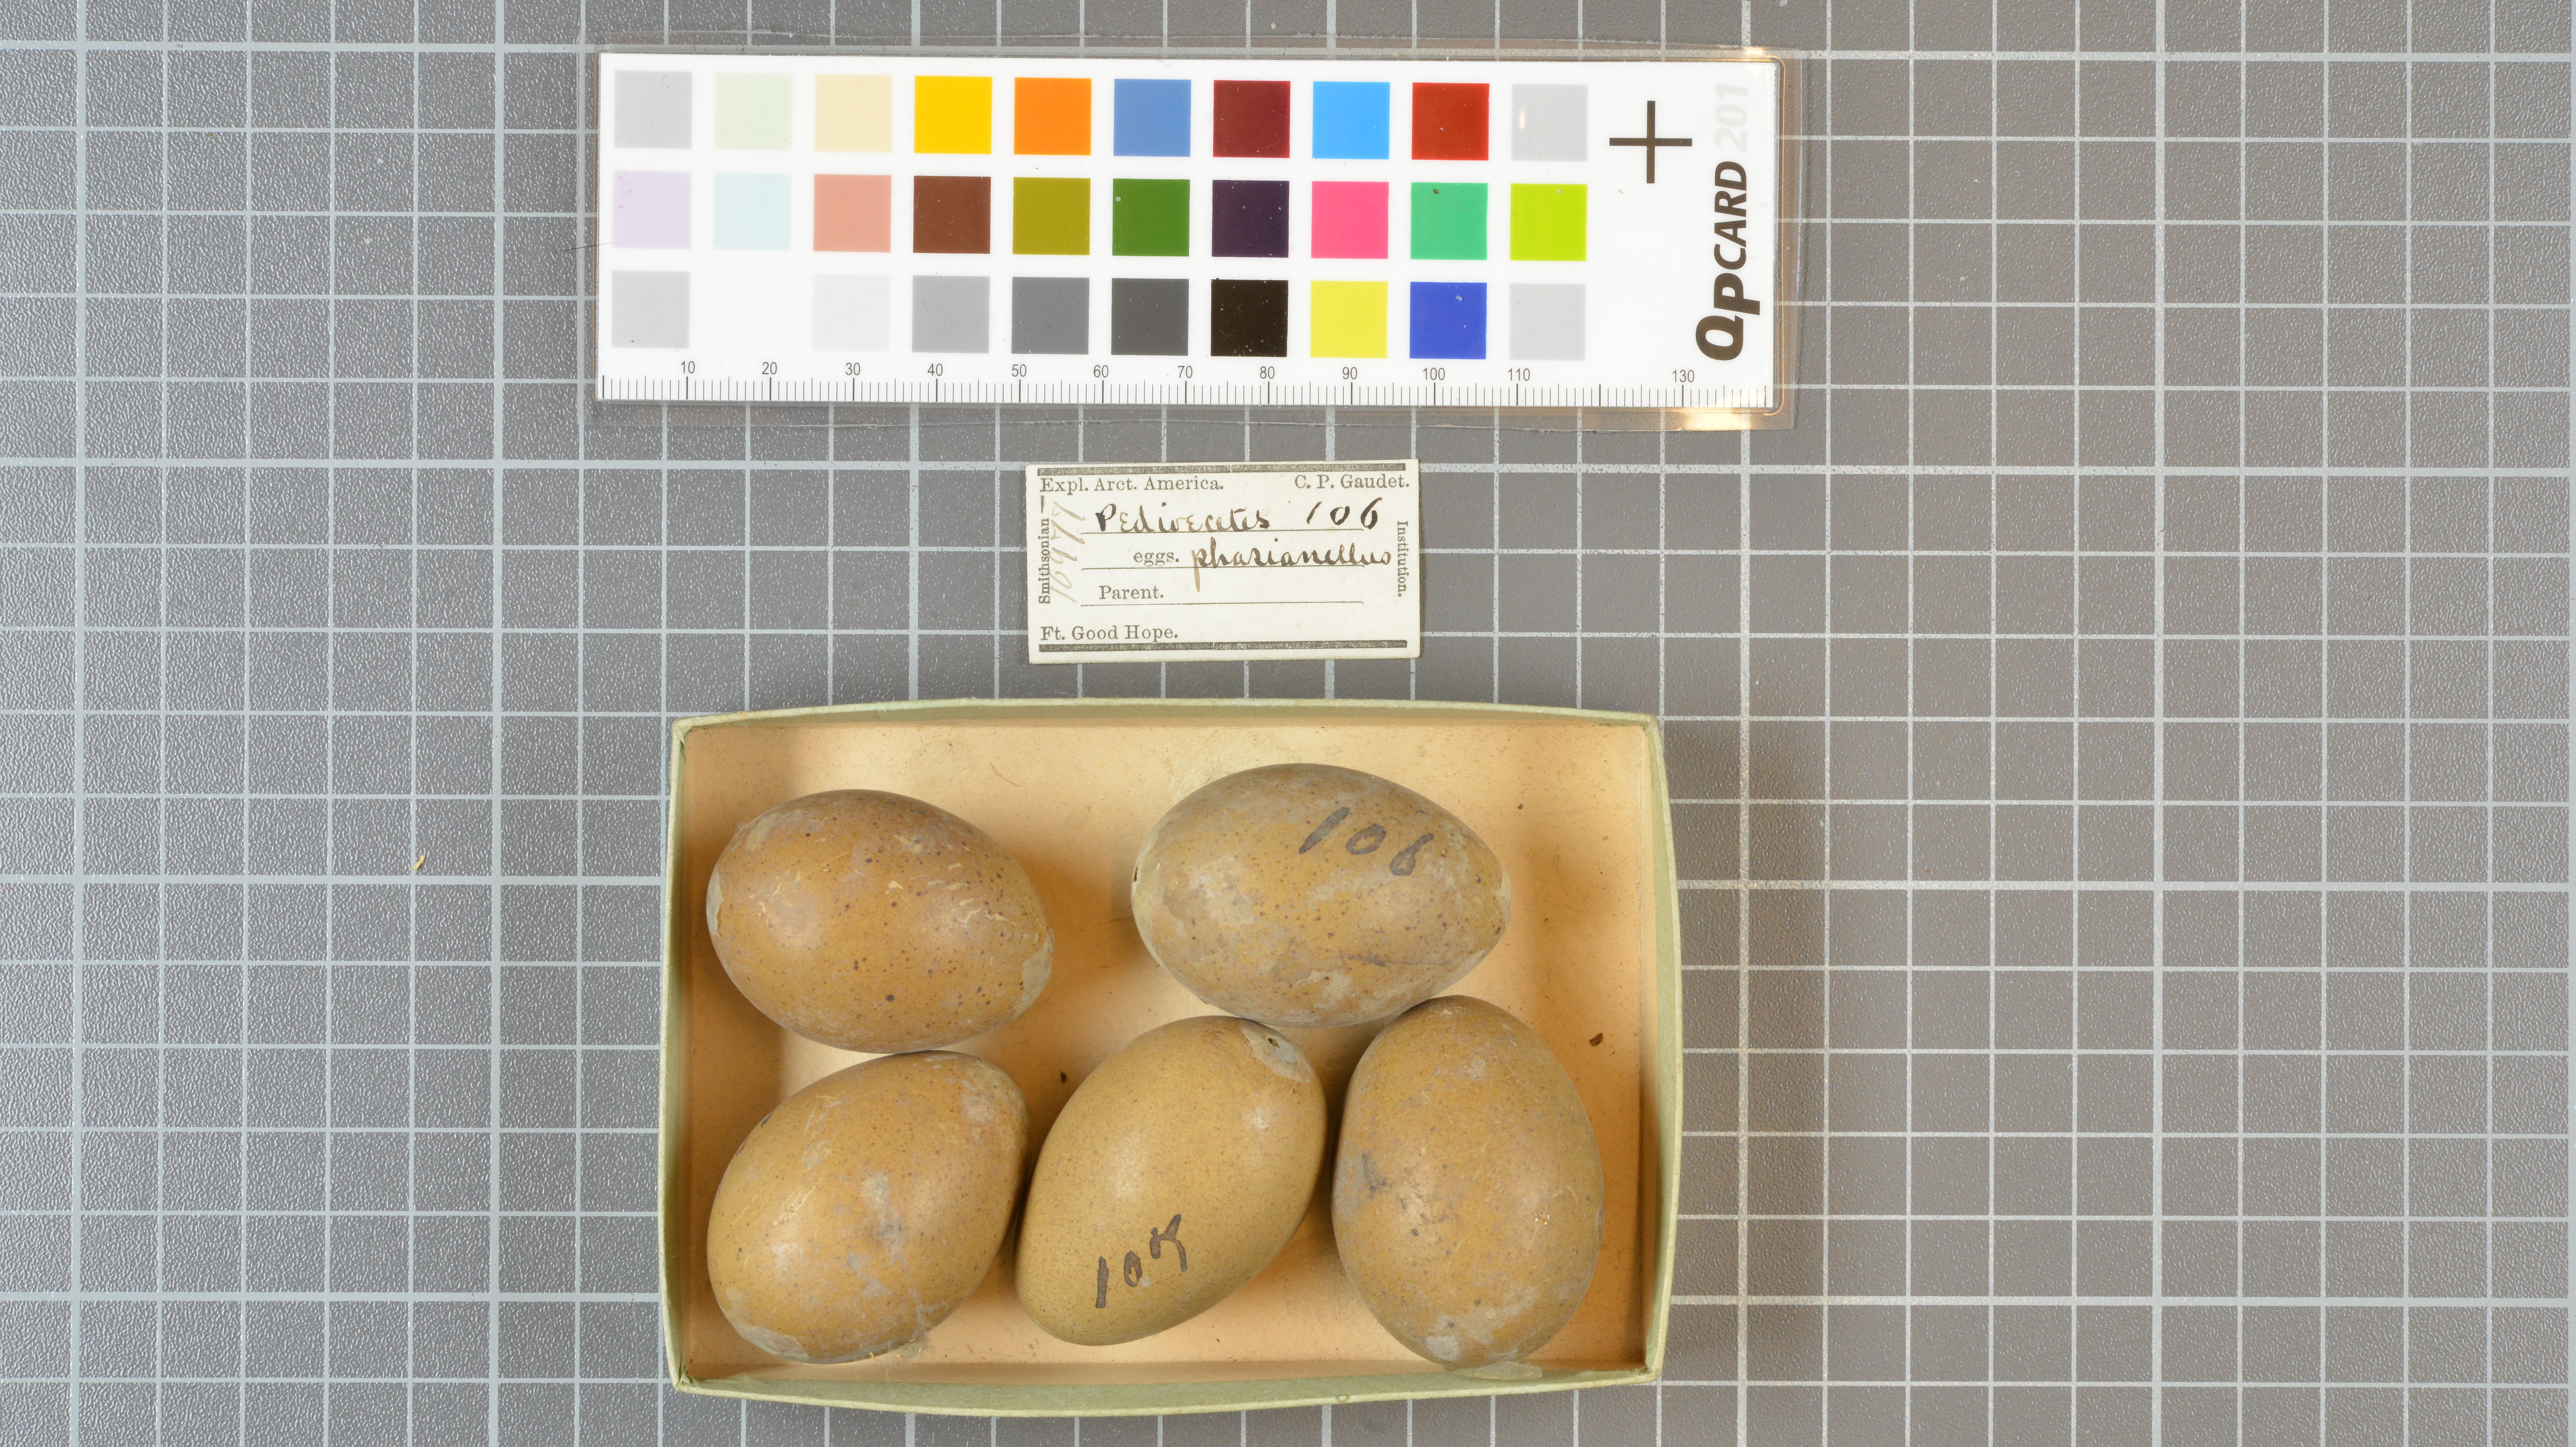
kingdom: Animalia
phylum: Chordata
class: Aves
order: Galliformes
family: Phasianidae
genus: Tympanuchus
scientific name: Tympanuchus phasianellus
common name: Sharp-tailed grouse
